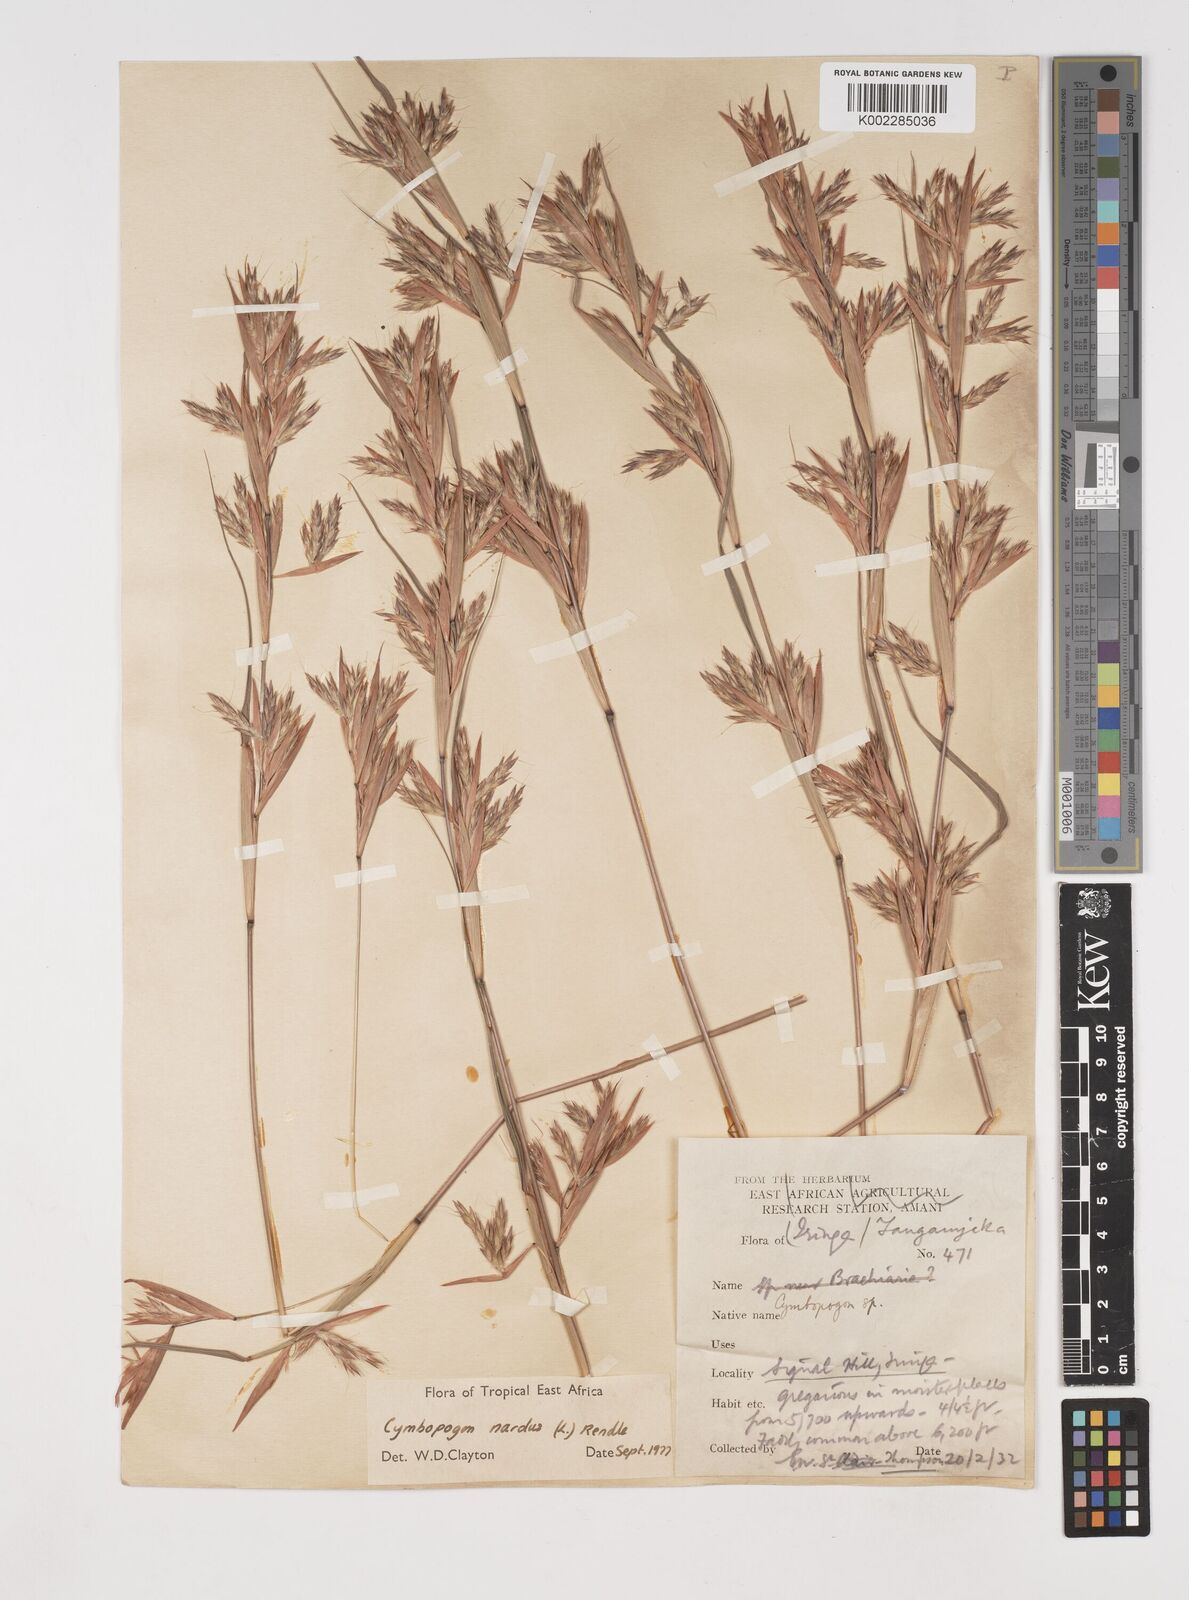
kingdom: Plantae
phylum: Tracheophyta
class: Liliopsida
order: Poales
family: Poaceae
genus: Cymbopogon
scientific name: Cymbopogon nardus
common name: Giant turpentine grass
